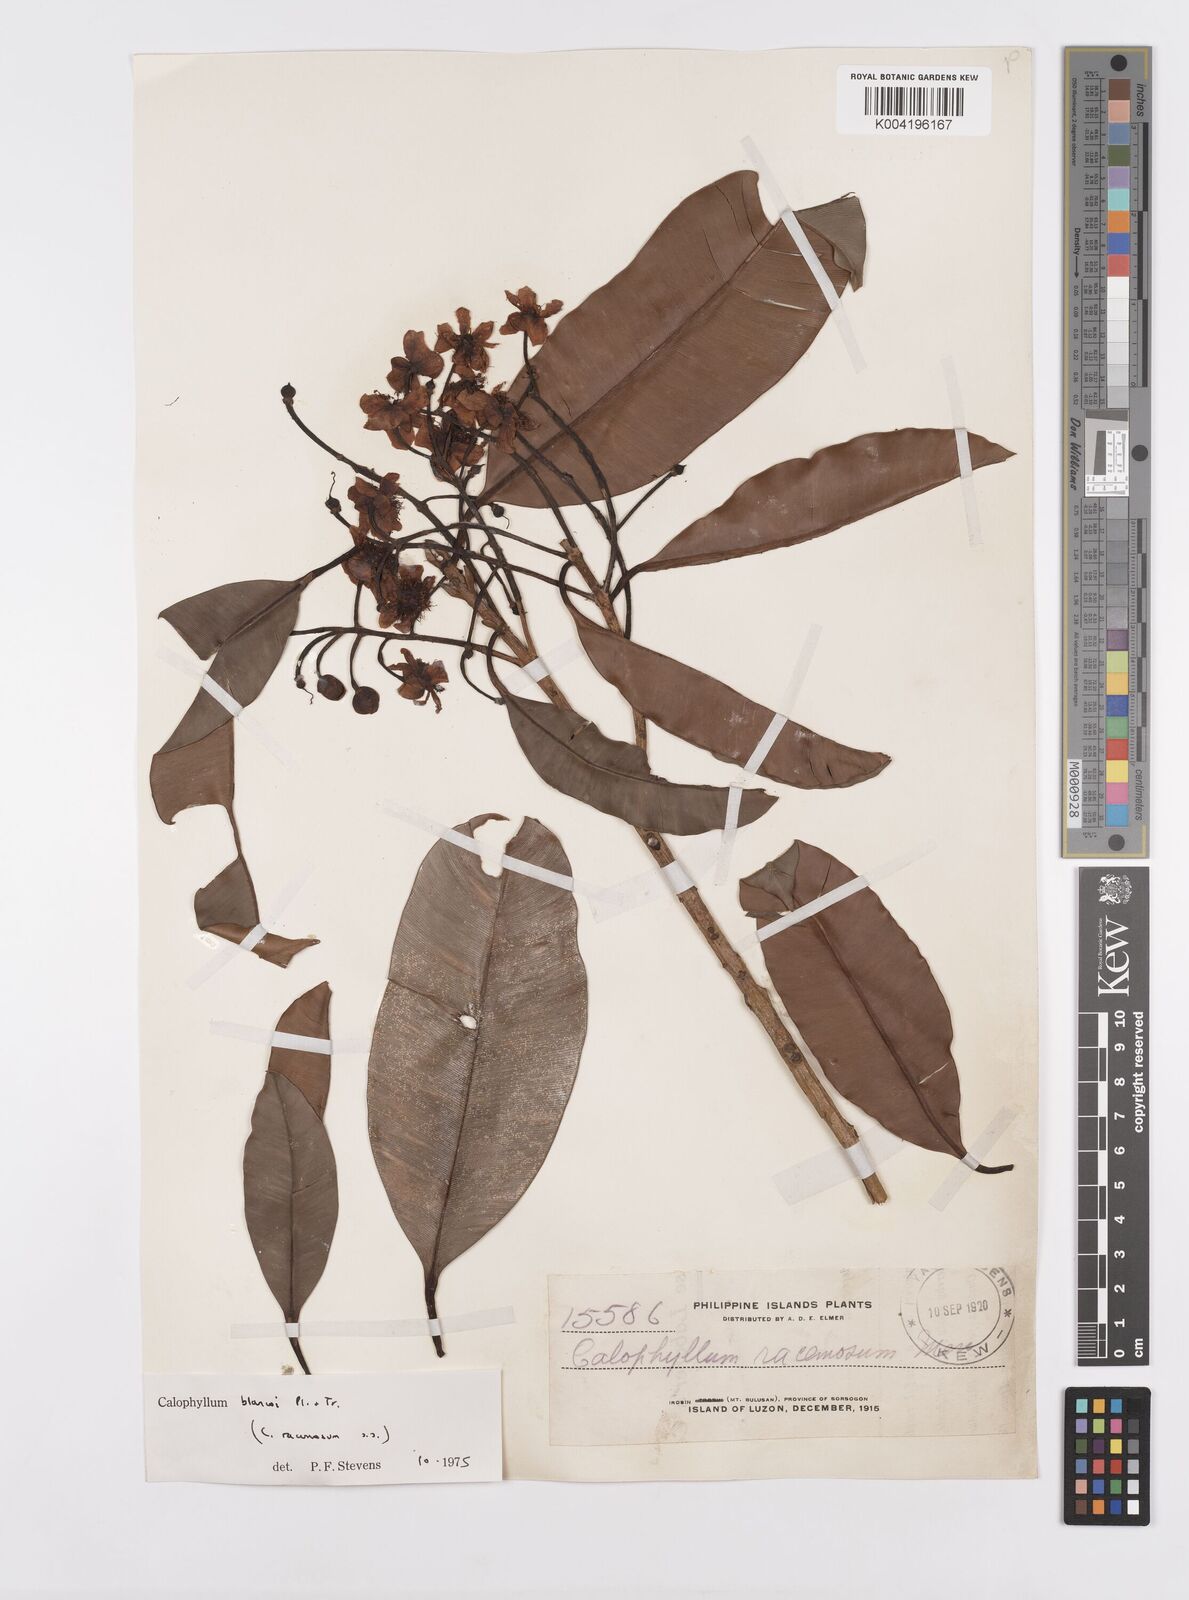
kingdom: Plantae
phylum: Tracheophyta
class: Magnoliopsida
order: Malpighiales
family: Calophyllaceae
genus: Calophyllum
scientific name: Calophyllum blancoi
